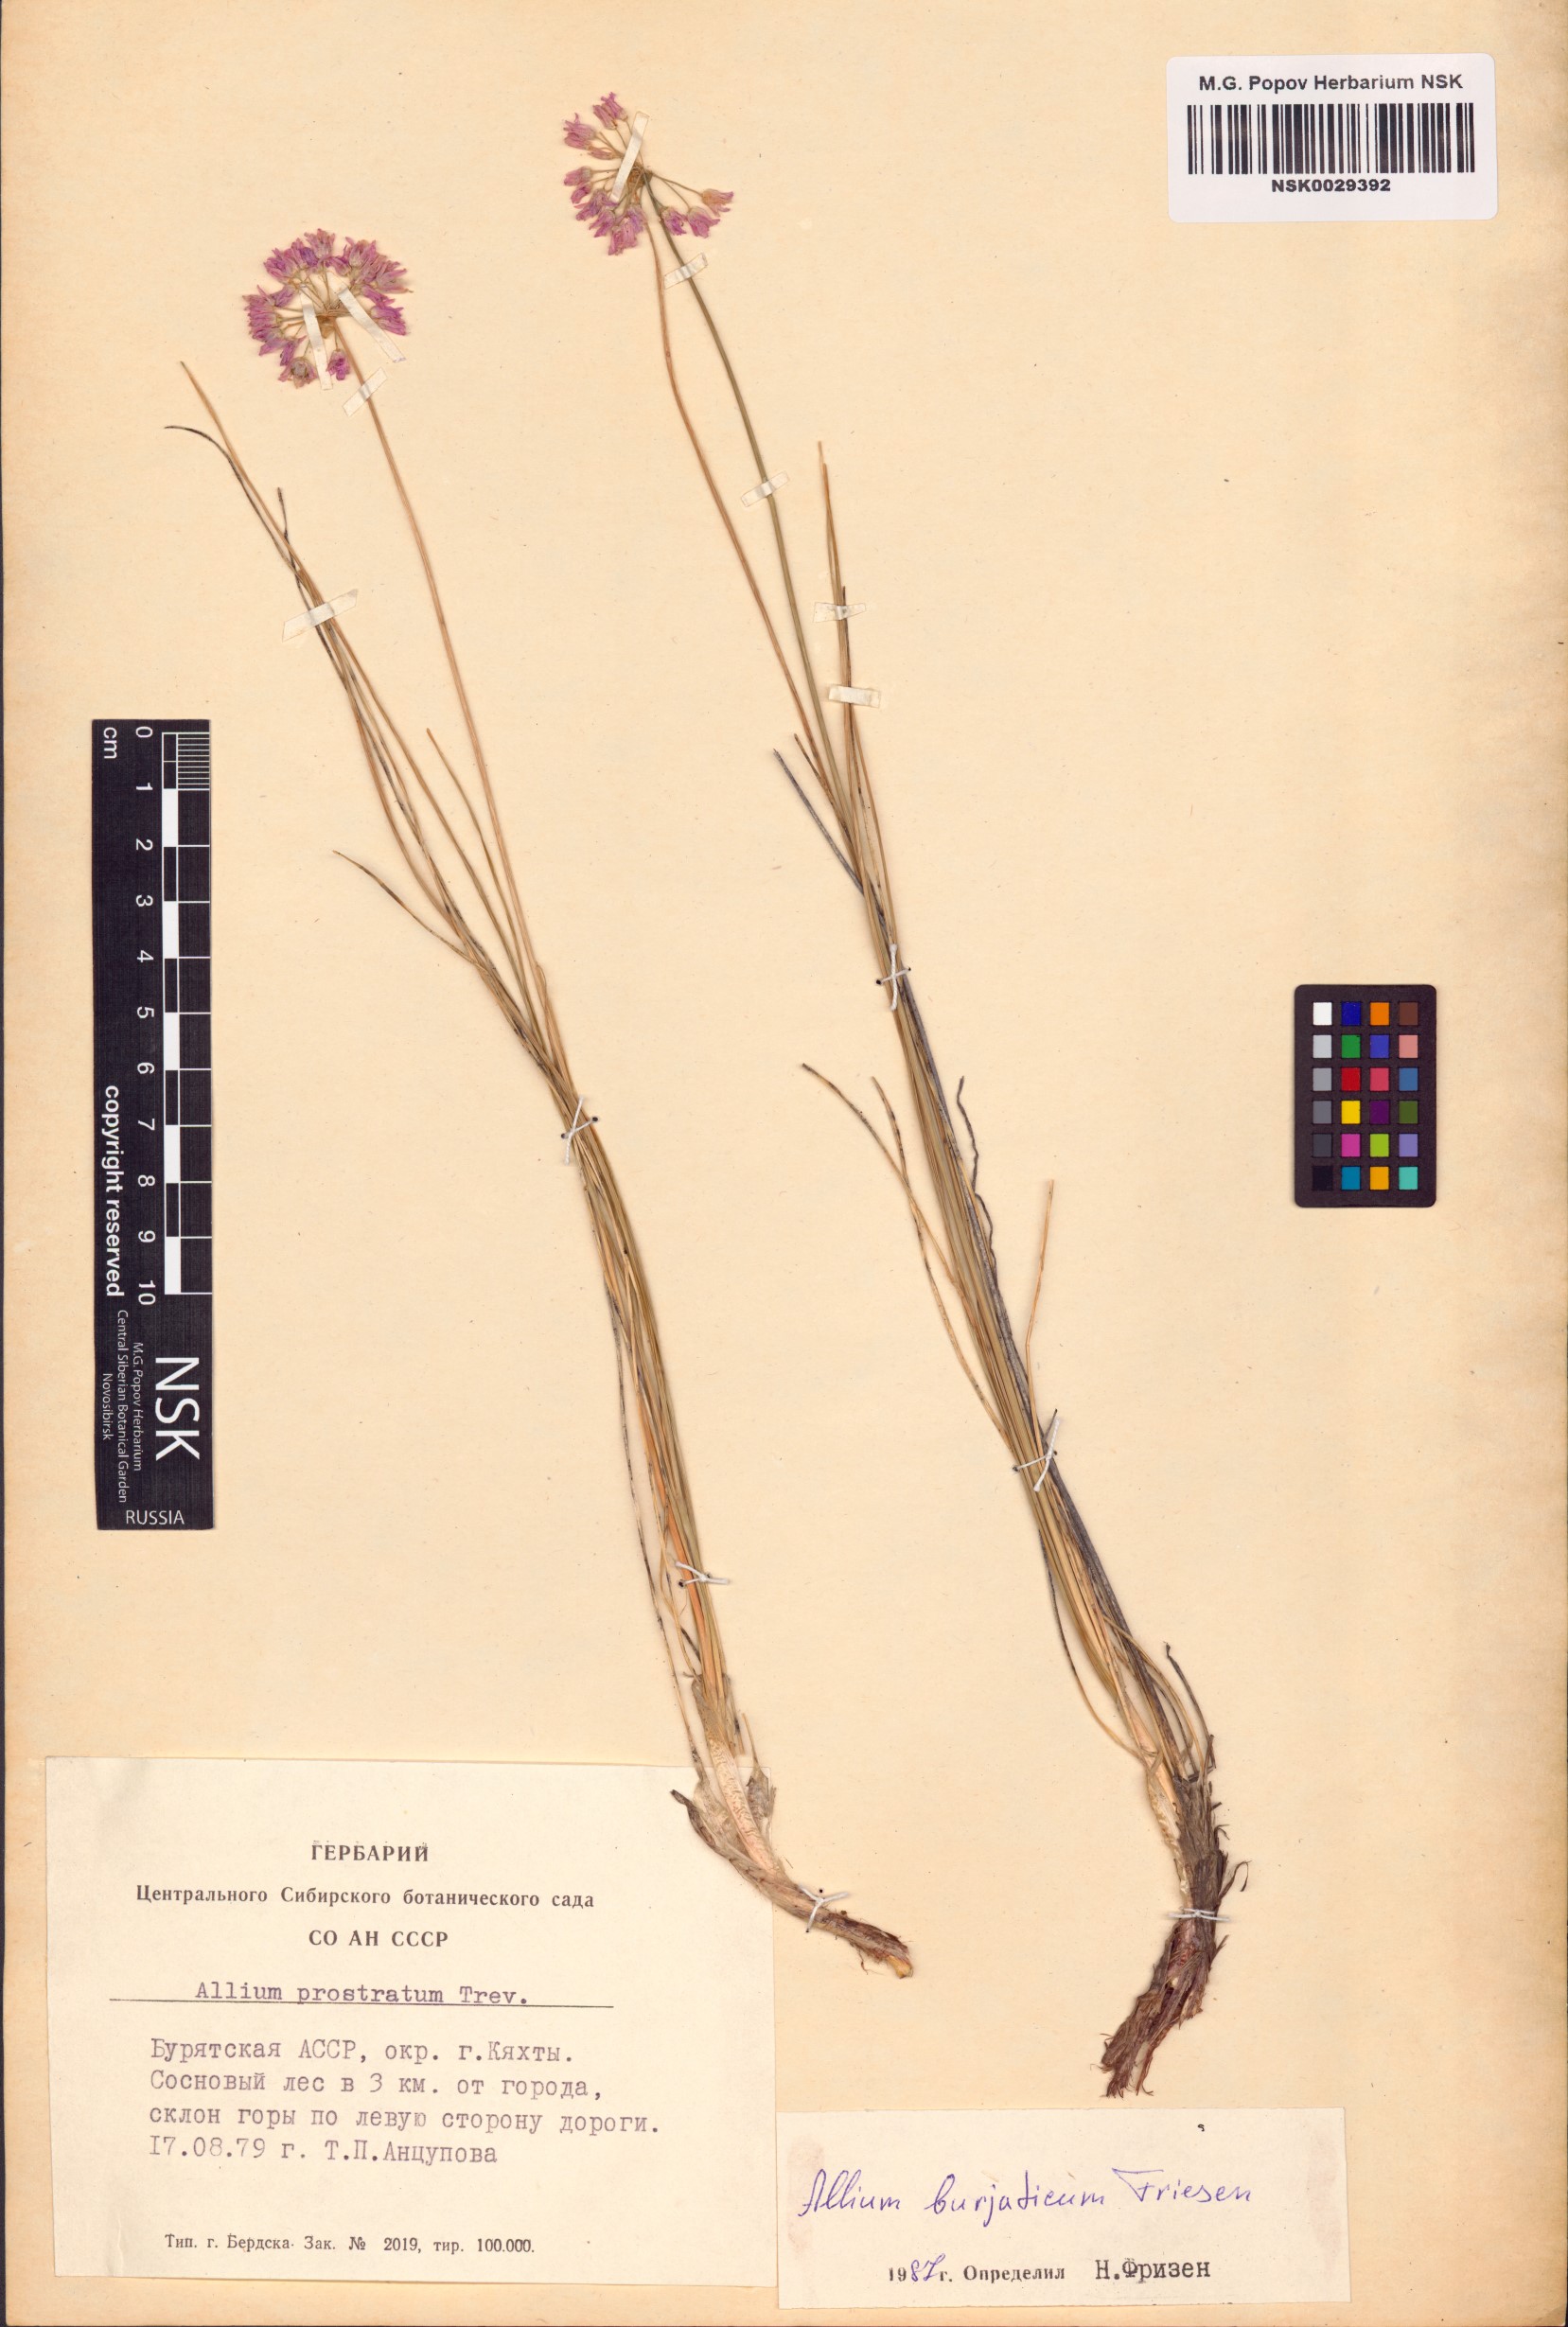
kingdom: Plantae
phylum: Tracheophyta
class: Liliopsida
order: Asparagales
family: Amaryllidaceae
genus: Allium
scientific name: Allium burjaticum
